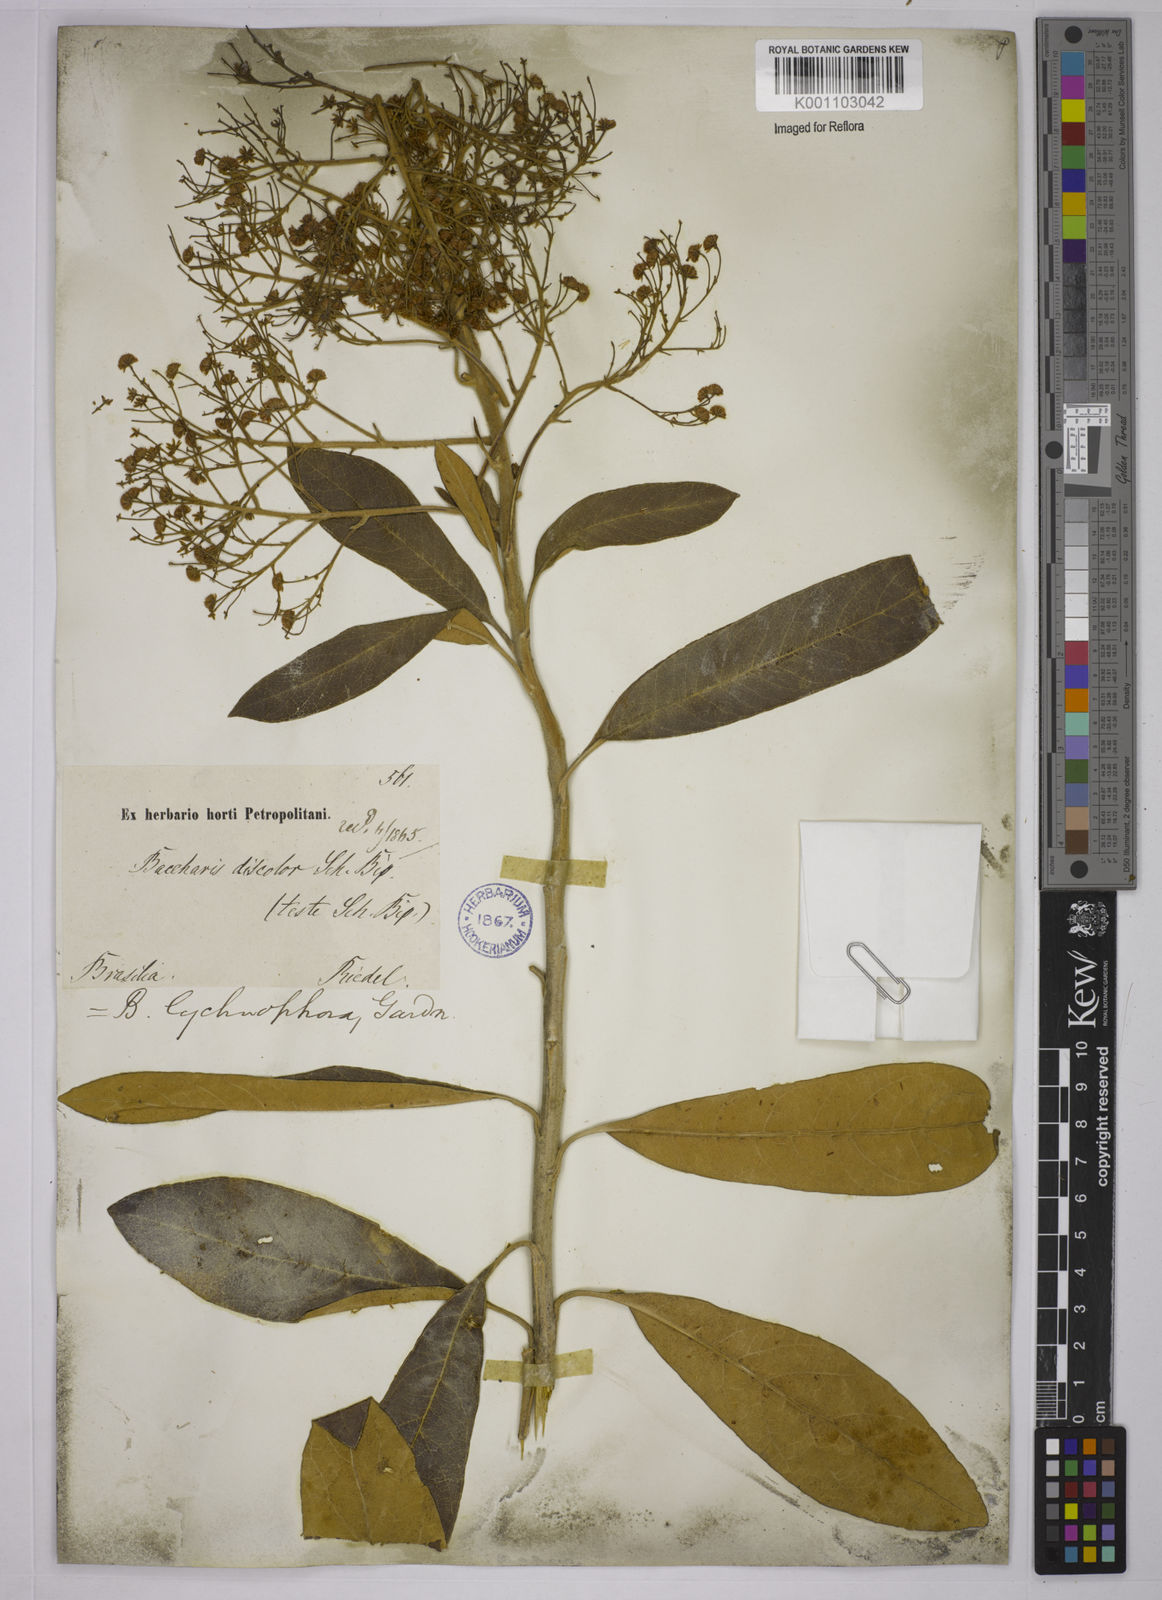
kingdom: Plantae
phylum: Tracheophyta
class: Magnoliopsida
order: Asterales
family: Asteraceae
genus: Baccharis
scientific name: Baccharis lychnophora
